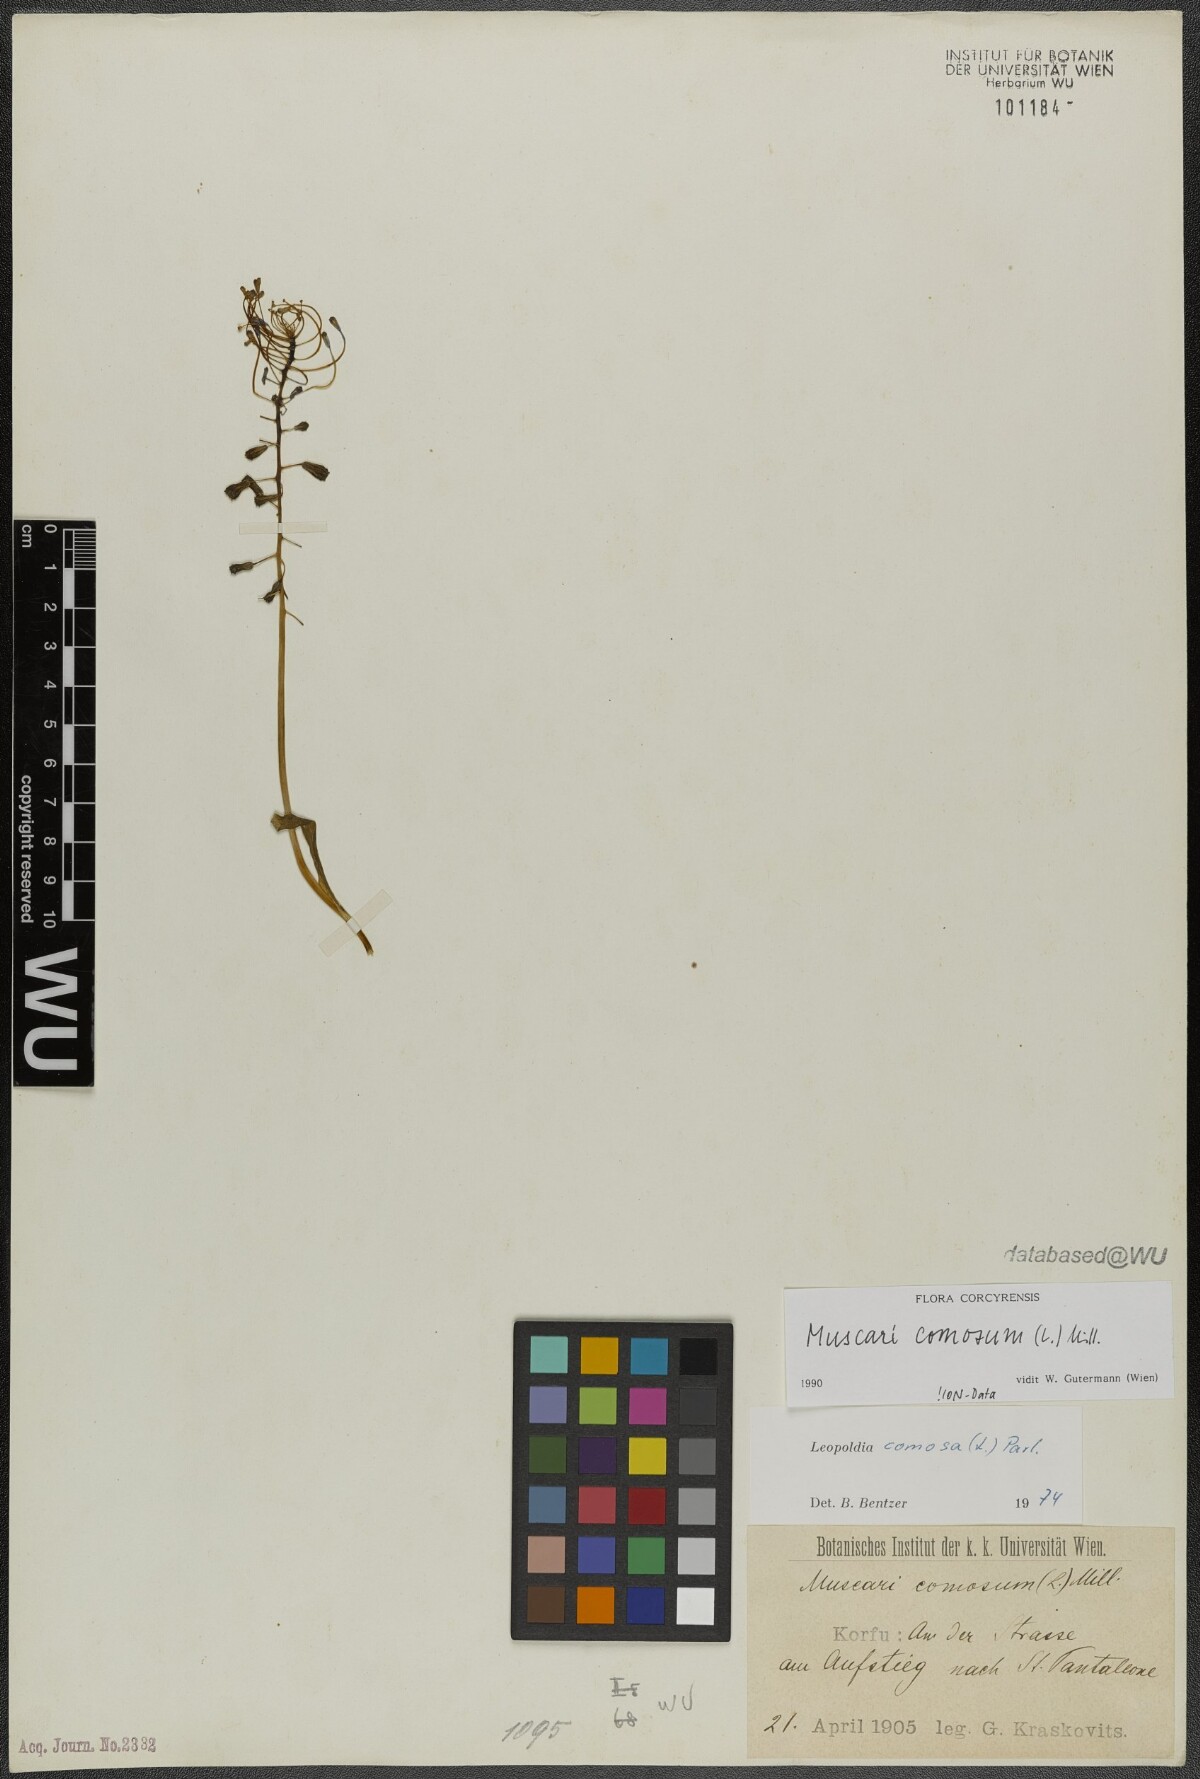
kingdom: Plantae
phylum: Tracheophyta
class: Liliopsida
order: Asparagales
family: Asparagaceae
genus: Muscari
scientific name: Muscari comosum
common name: Tassel hyacinth
